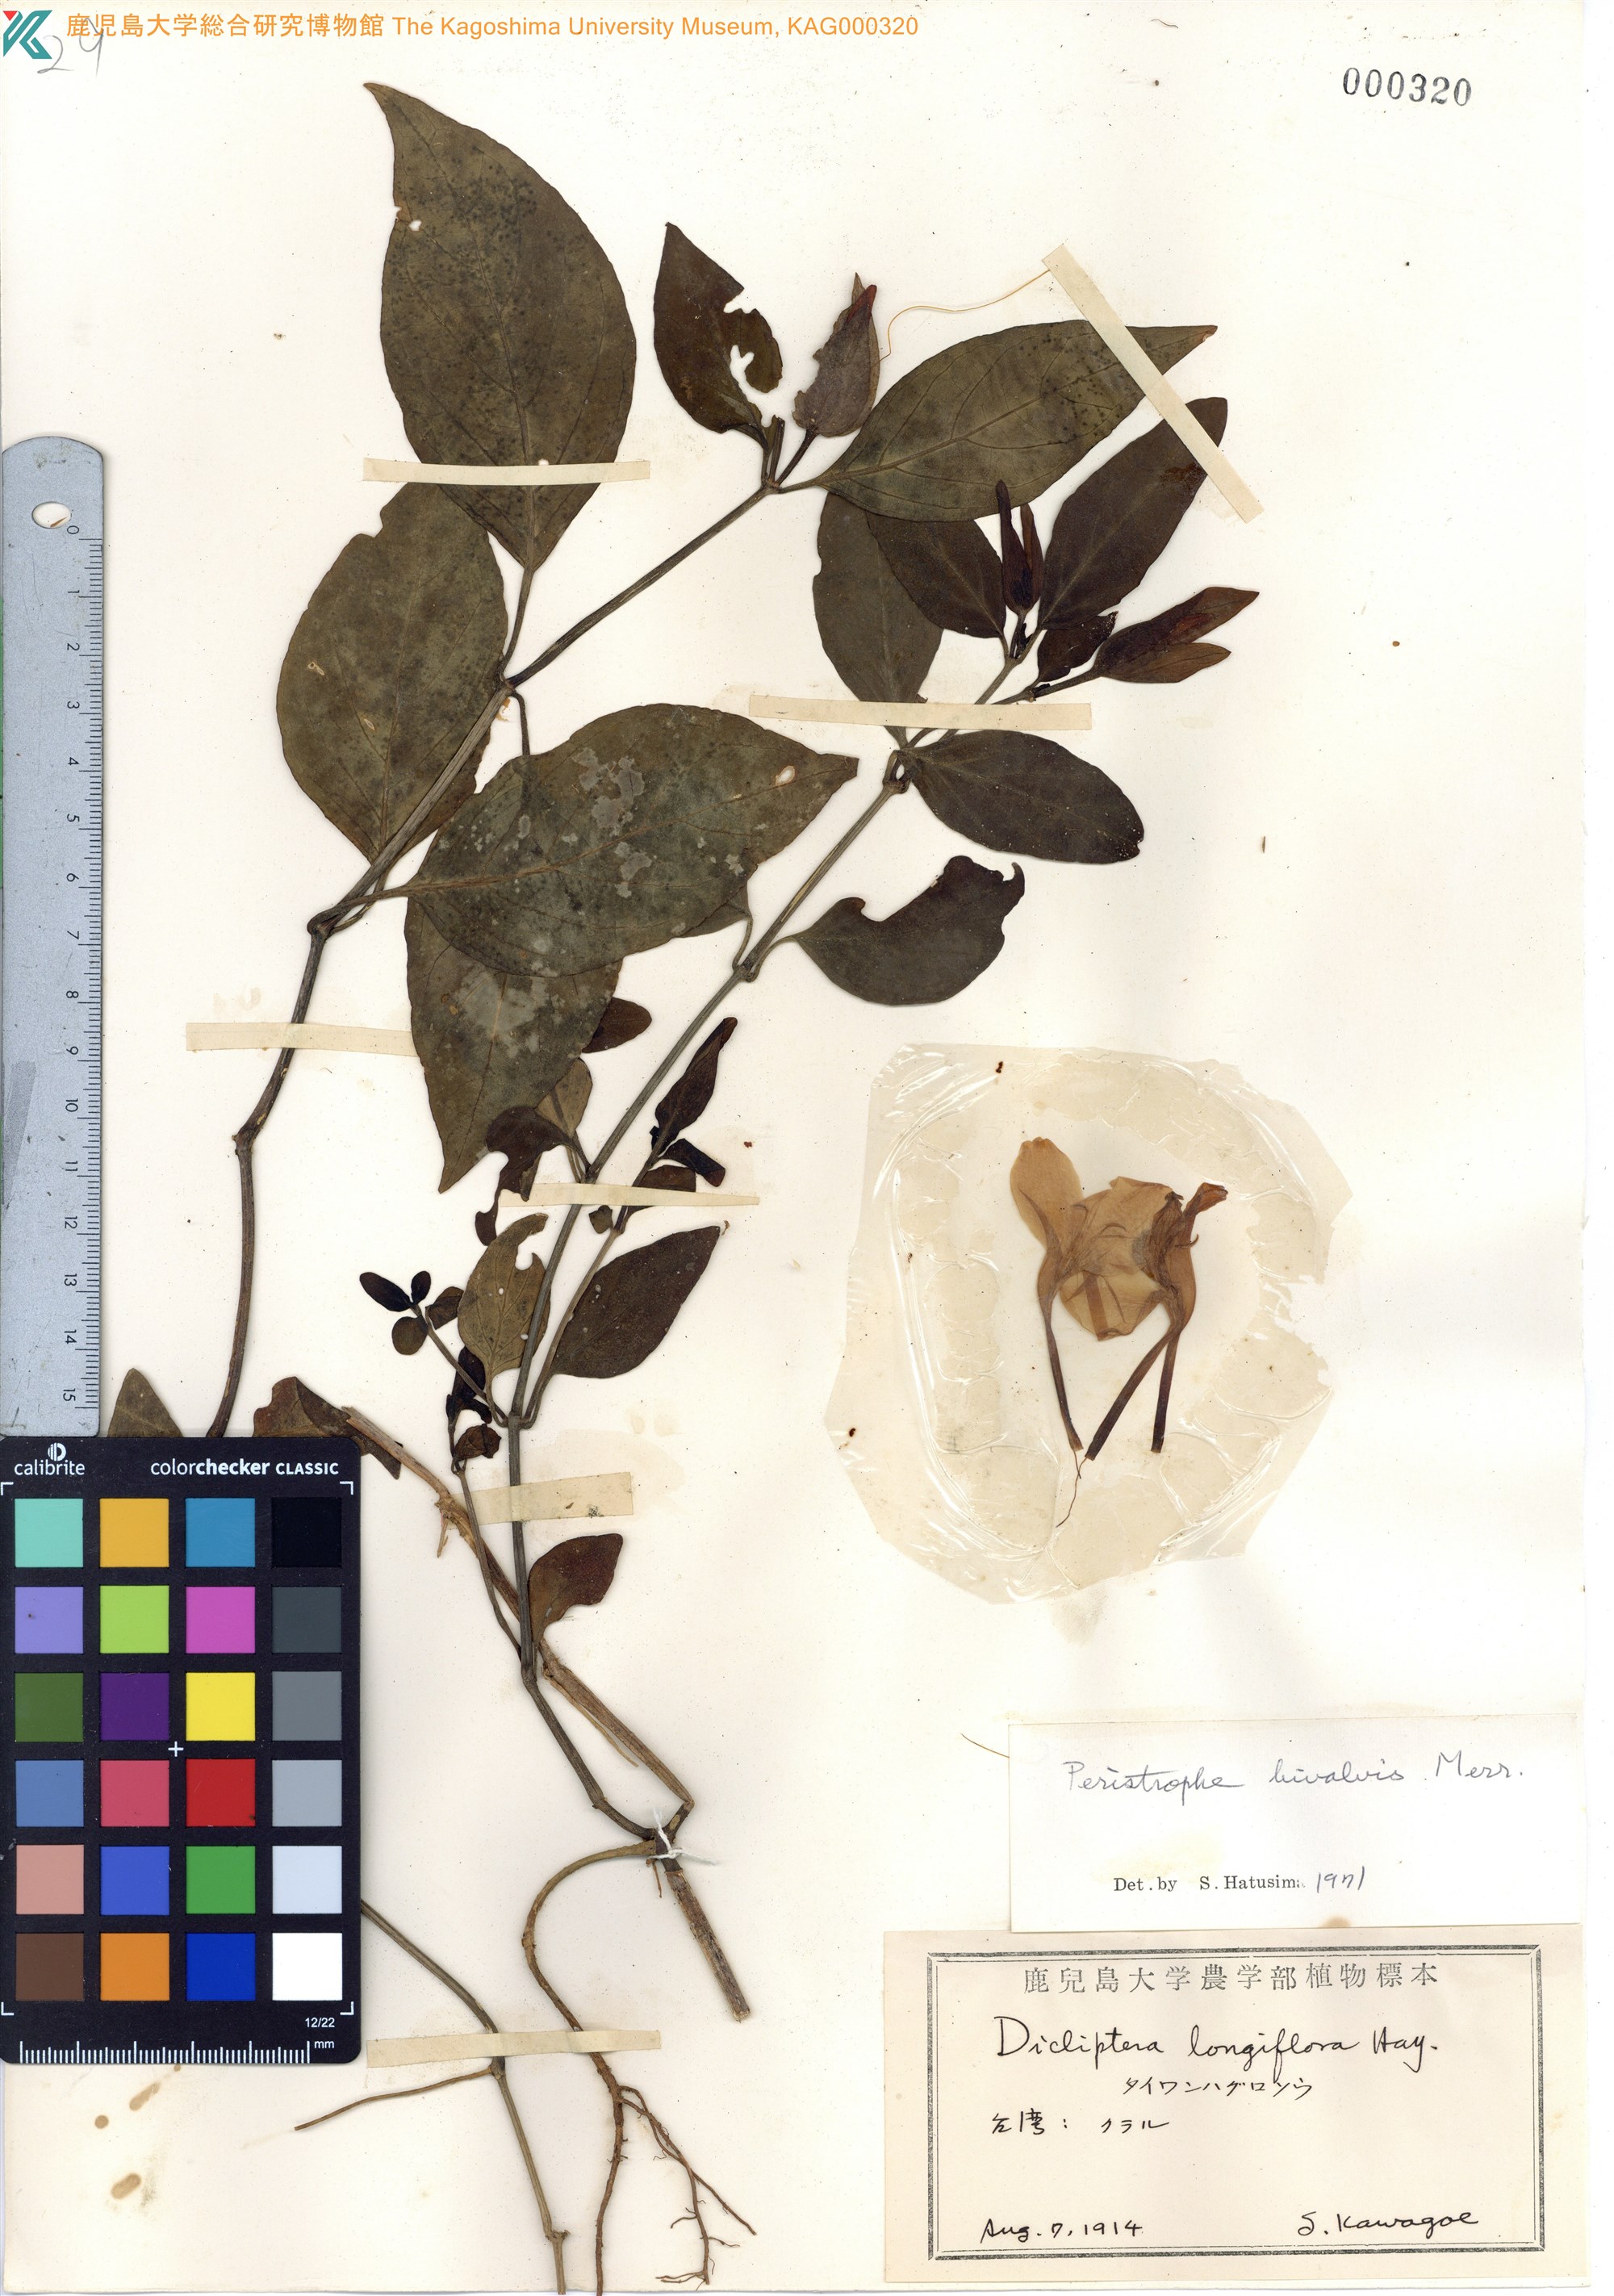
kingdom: Plantae
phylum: Tracheophyta
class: Magnoliopsida
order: Lamiales
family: Acanthaceae
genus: Dicliptera
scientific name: Dicliptera tinctoria
